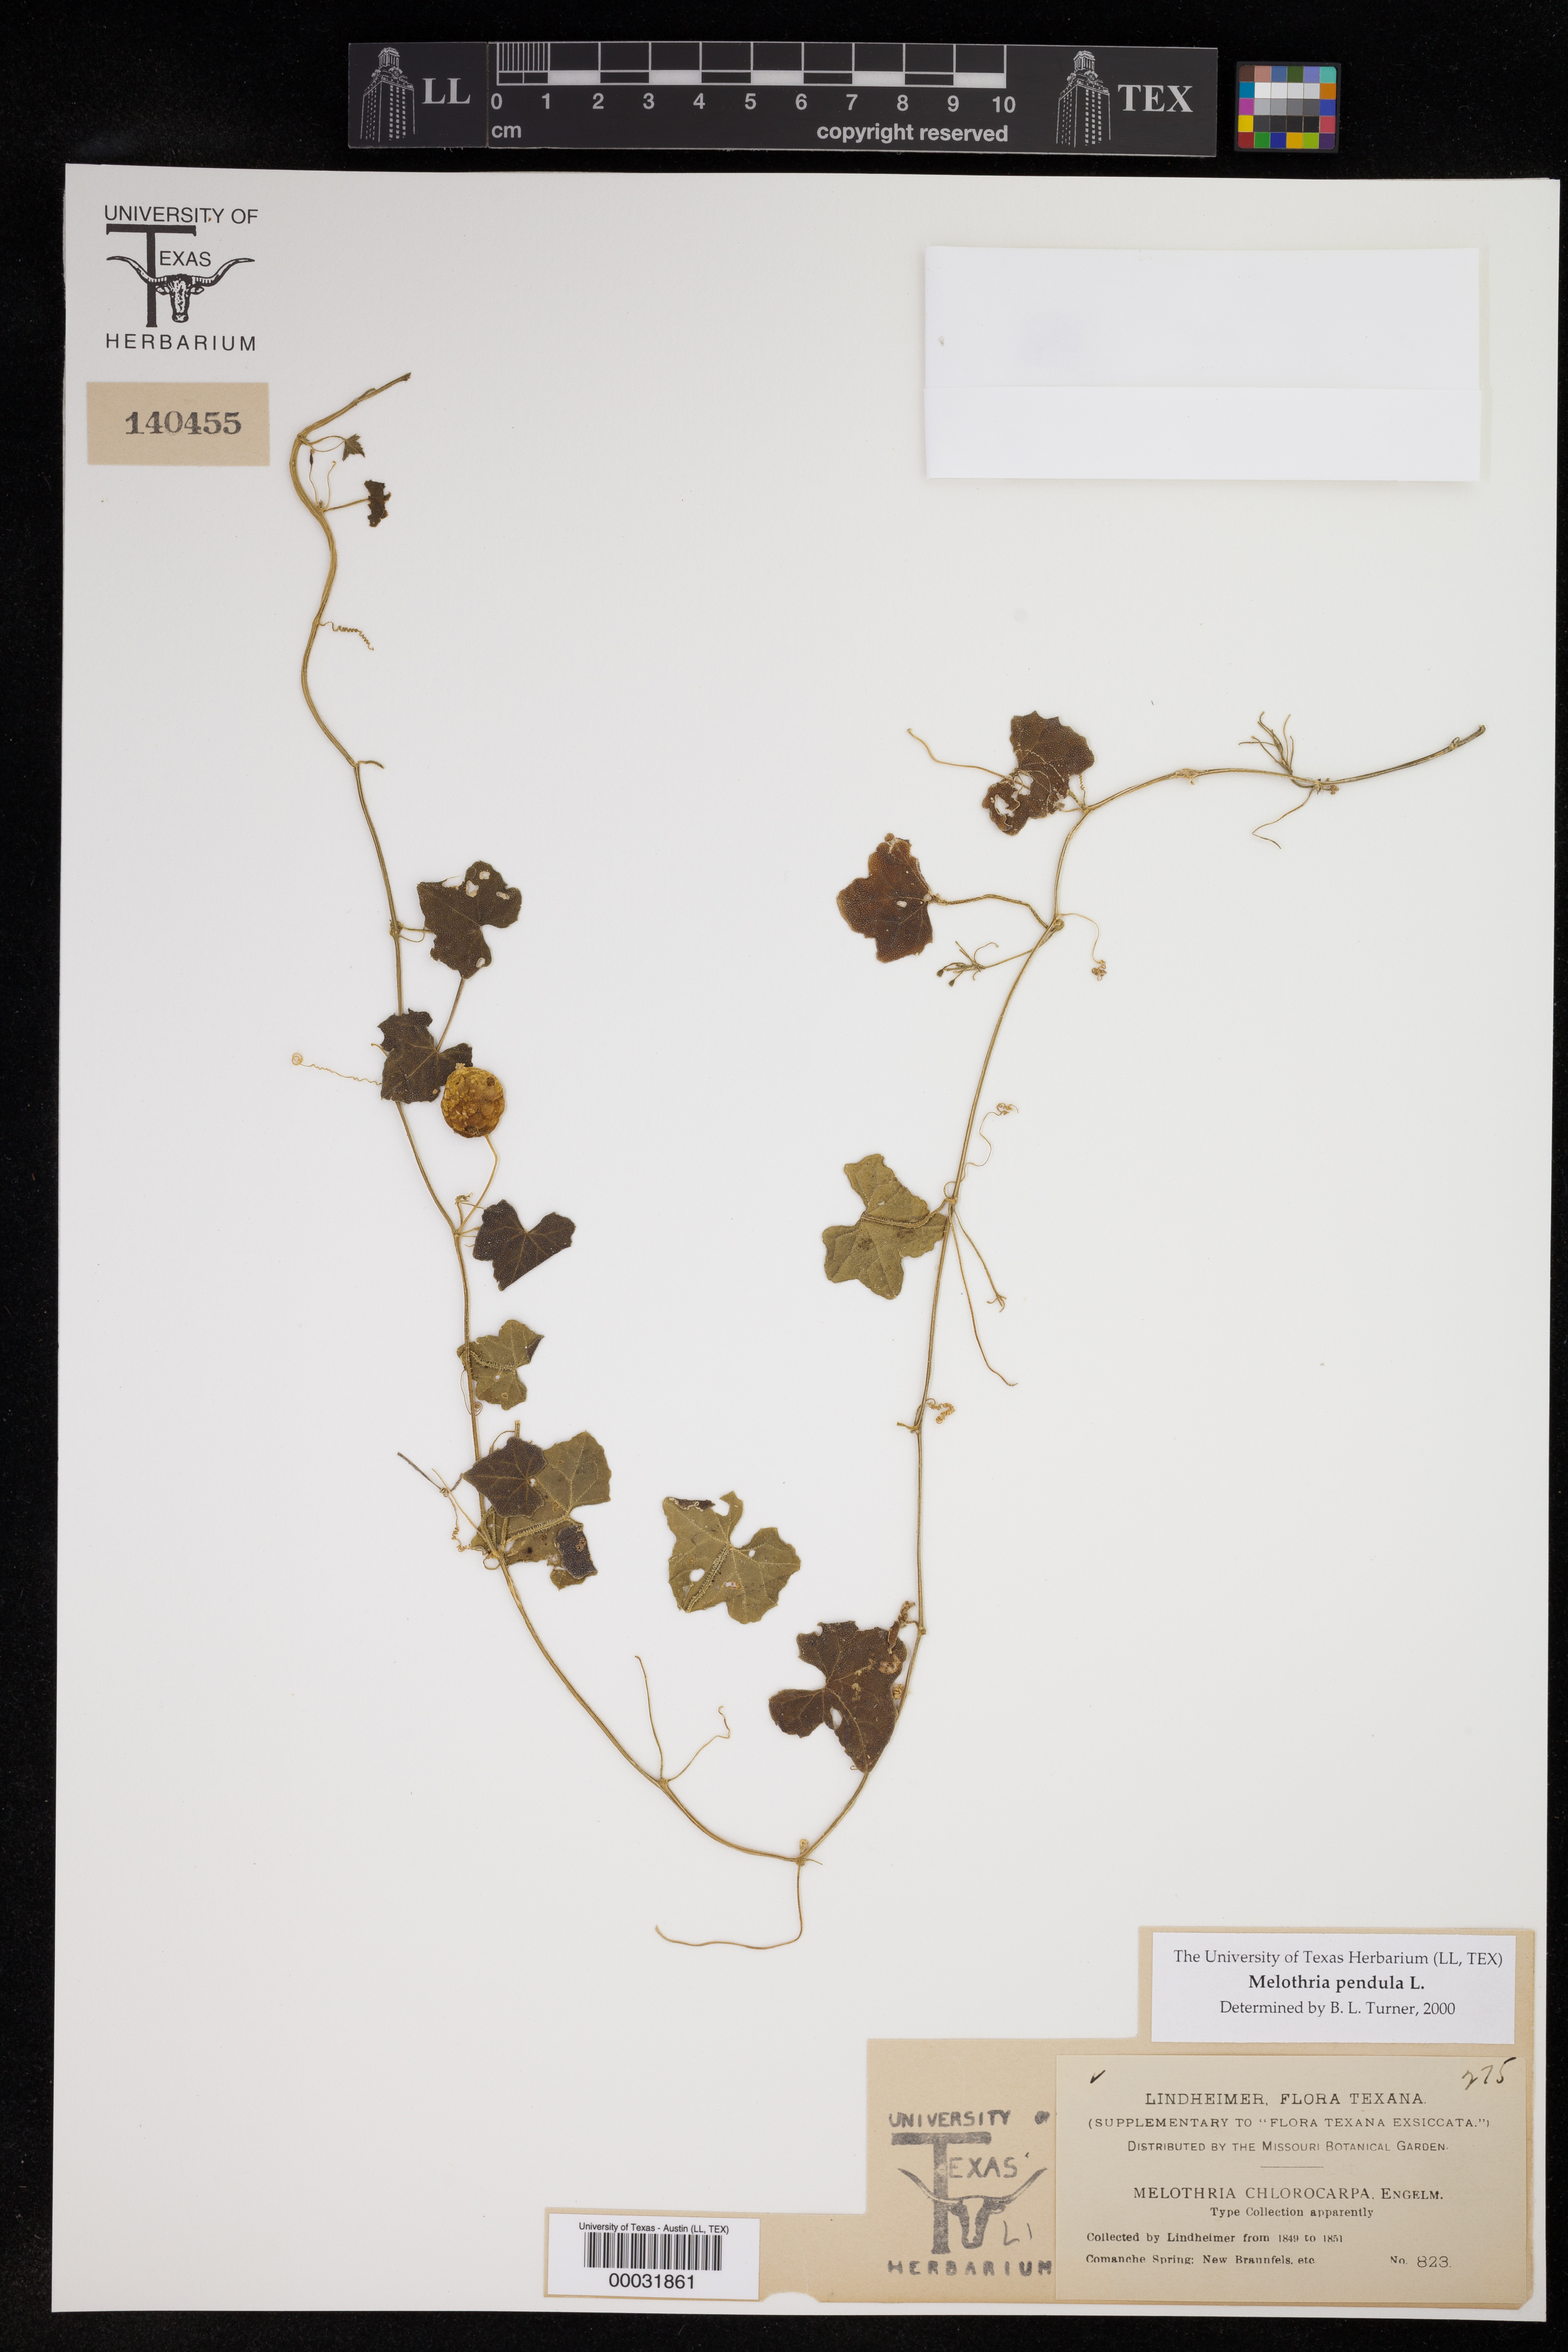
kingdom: Plantae
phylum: Tracheophyta
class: Magnoliopsida
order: Cucurbitales
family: Cucurbitaceae
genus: Melothria
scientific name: Melothria pendula
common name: Creeping-cucumber
